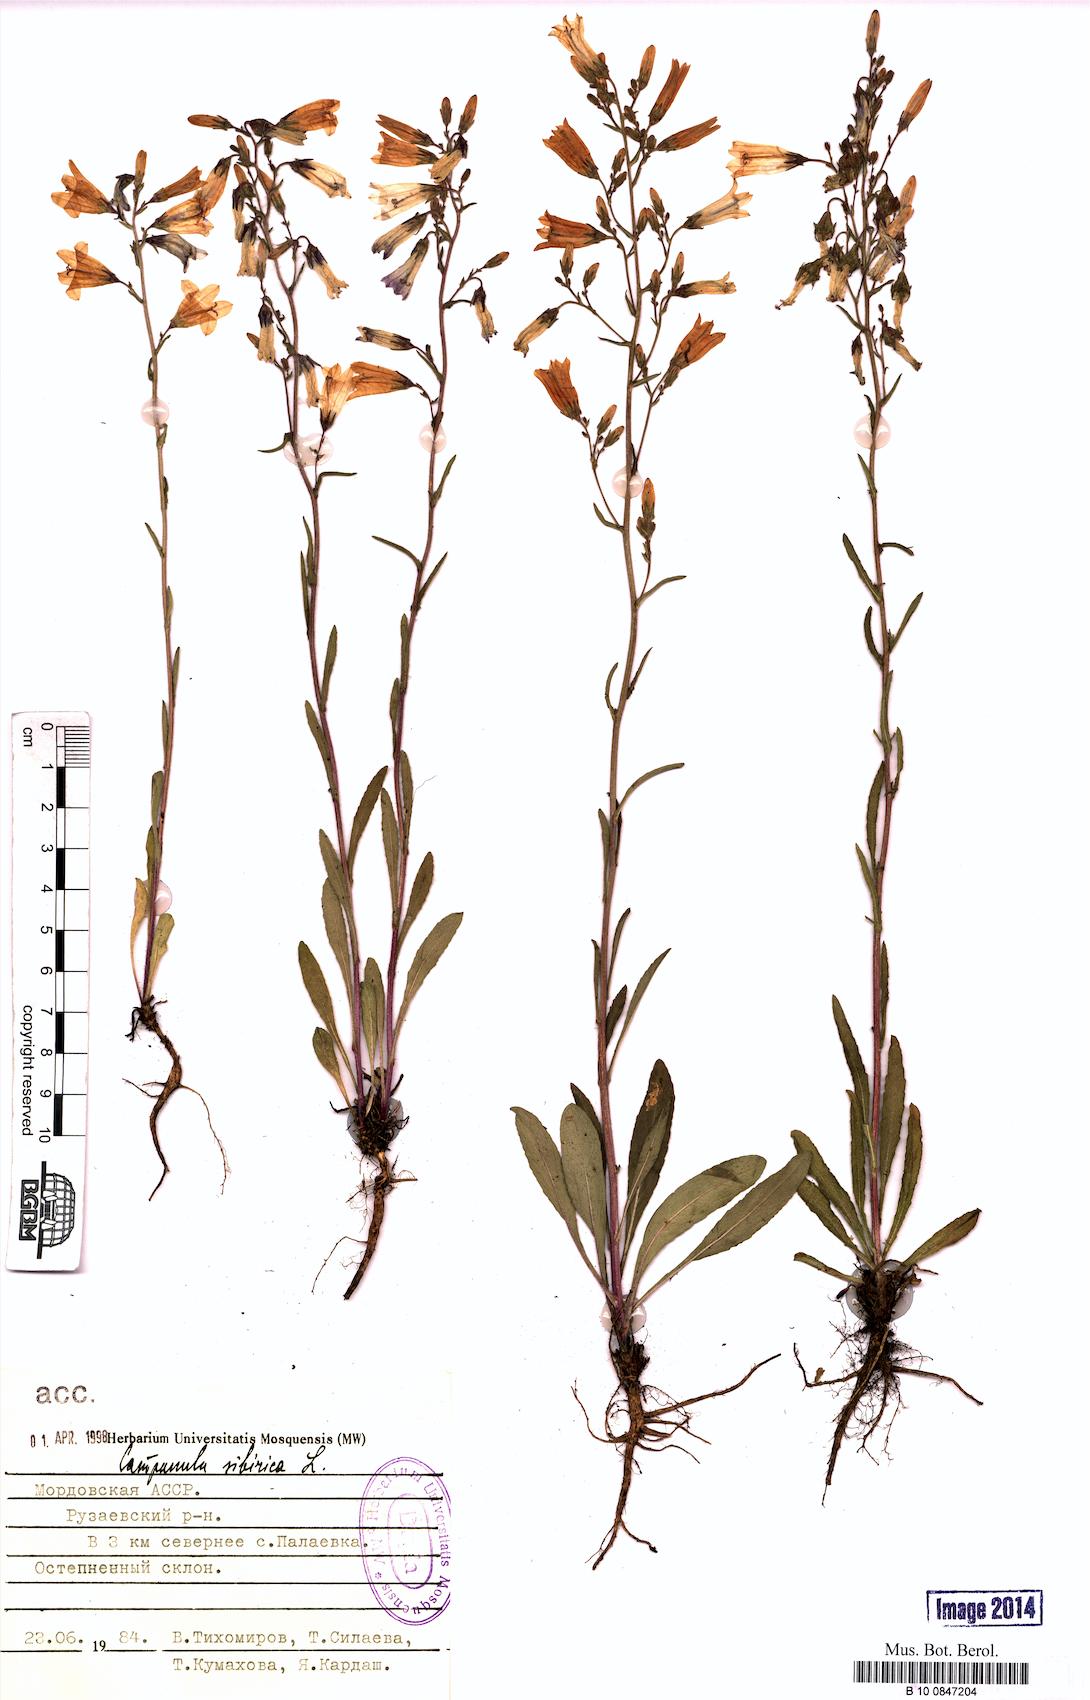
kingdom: Plantae
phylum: Tracheophyta
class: Magnoliopsida
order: Asterales
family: Campanulaceae
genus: Campanula
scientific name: Campanula sibirica
